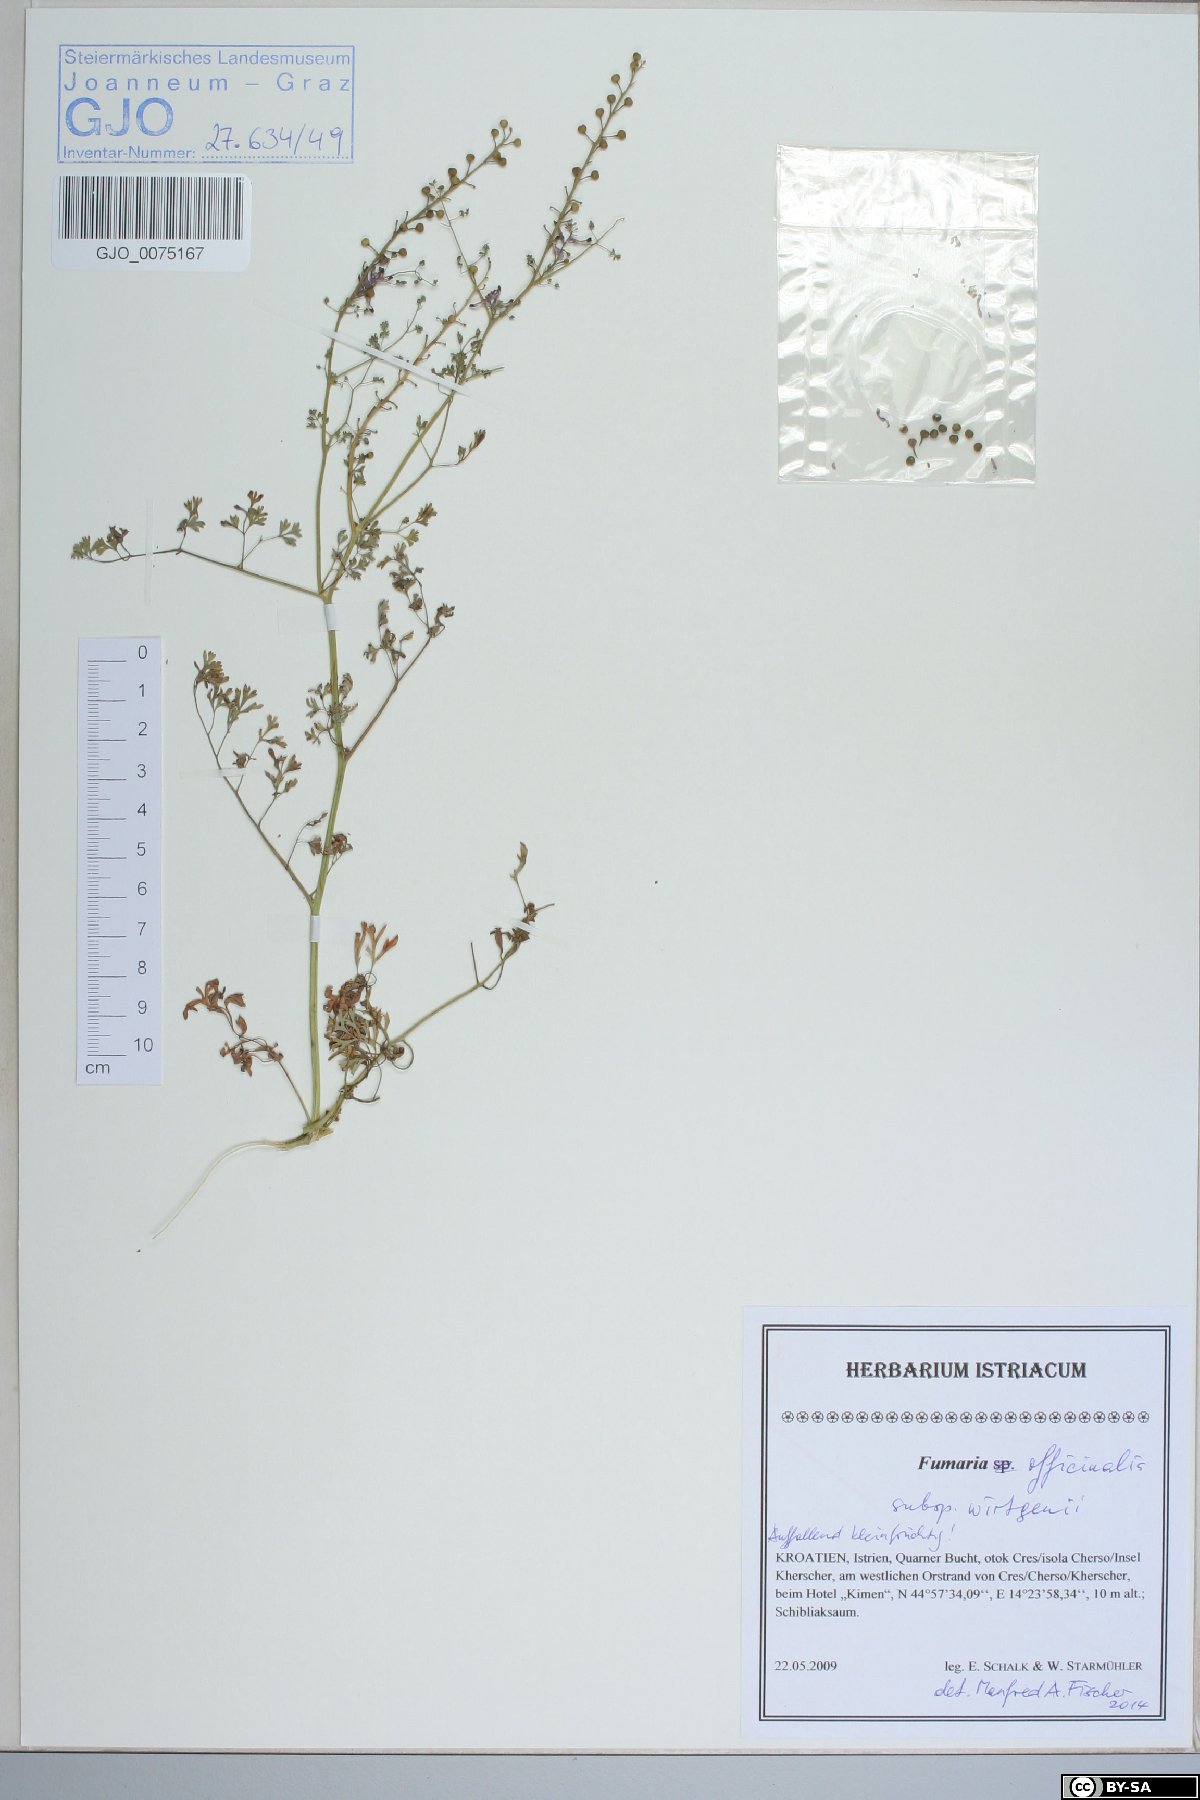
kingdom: Plantae
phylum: Tracheophyta
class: Magnoliopsida
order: Ranunculales
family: Papaveraceae
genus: Fumaria
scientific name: Fumaria wirtgenii
